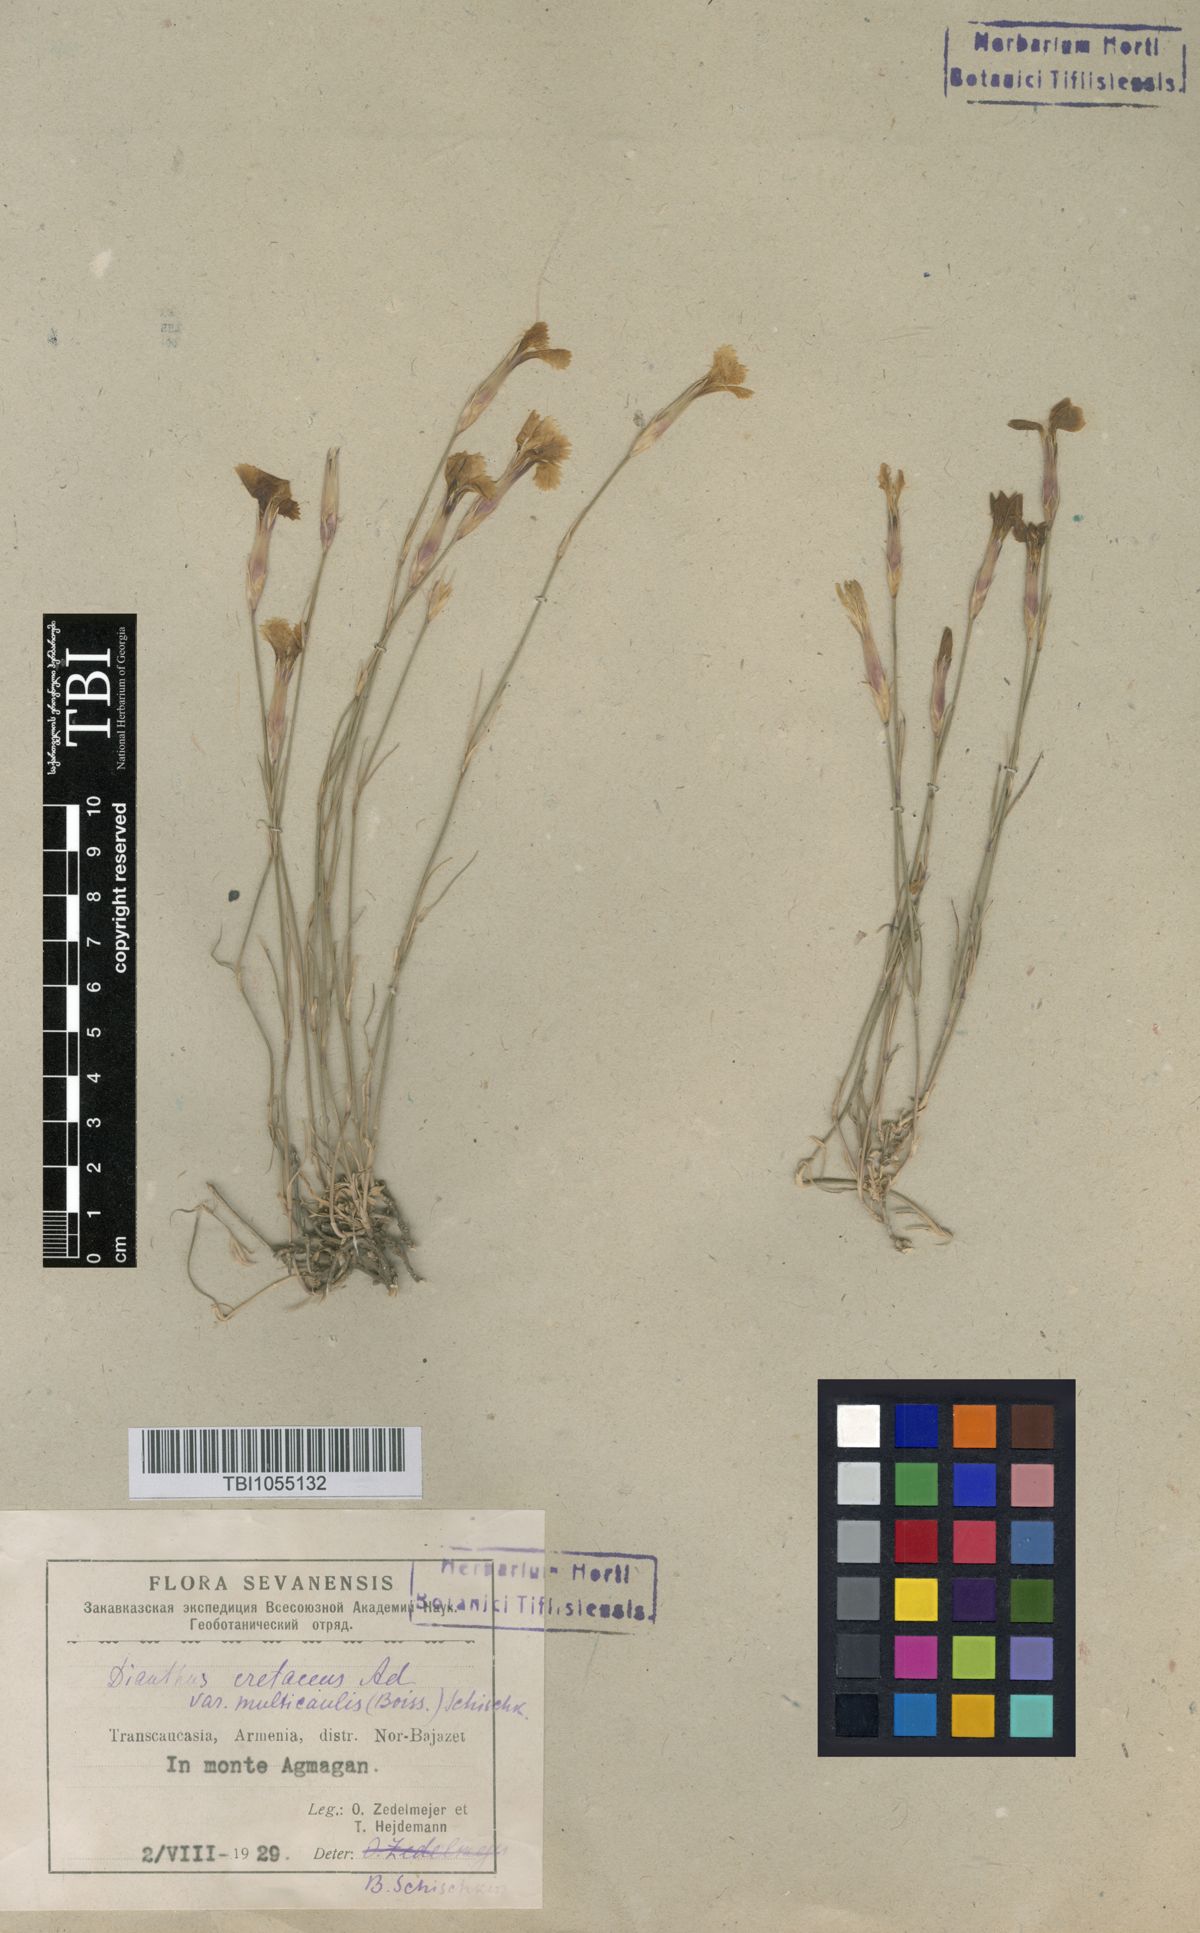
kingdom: Plantae
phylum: Tracheophyta
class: Magnoliopsida
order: Caryophyllales
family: Caryophyllaceae
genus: Dianthus
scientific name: Dianthus cretaceus
